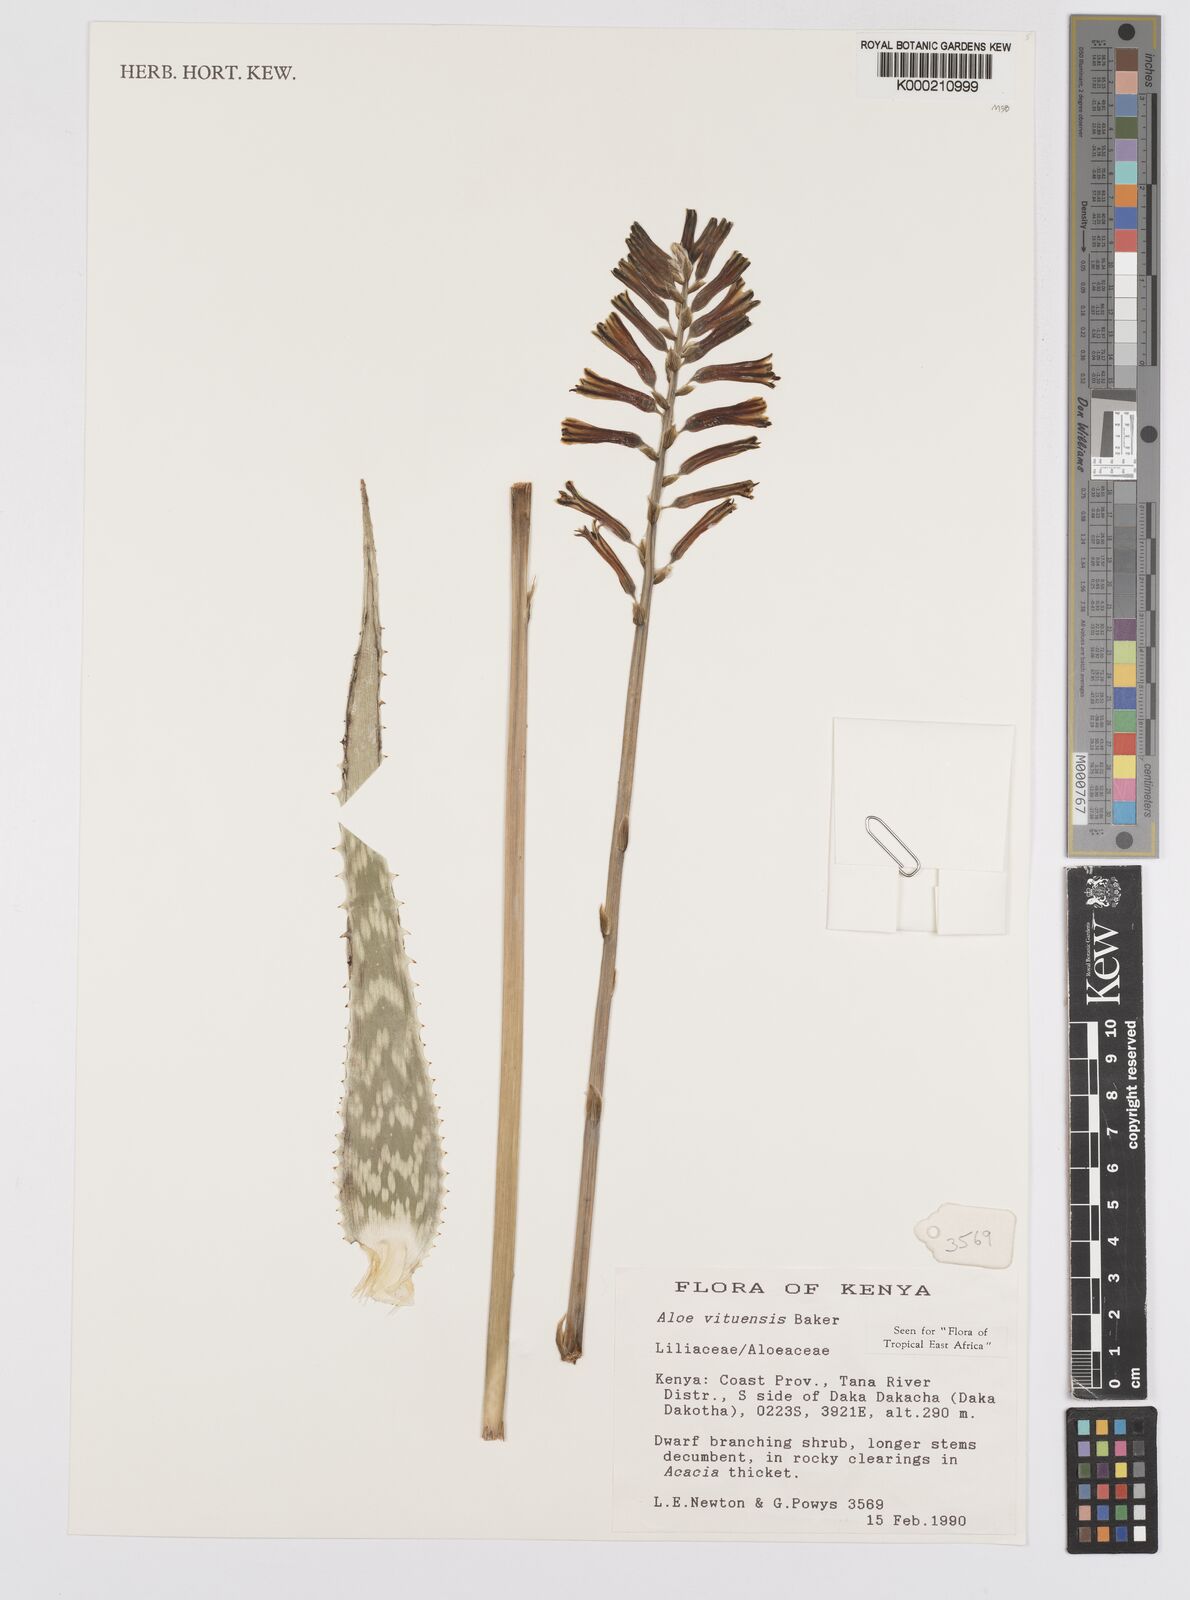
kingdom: Plantae
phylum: Tracheophyta
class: Liliopsida
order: Poales
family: Poaceae
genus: Eragrostis
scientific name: Eragrostis gangetica
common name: Slimflower lovegrass
